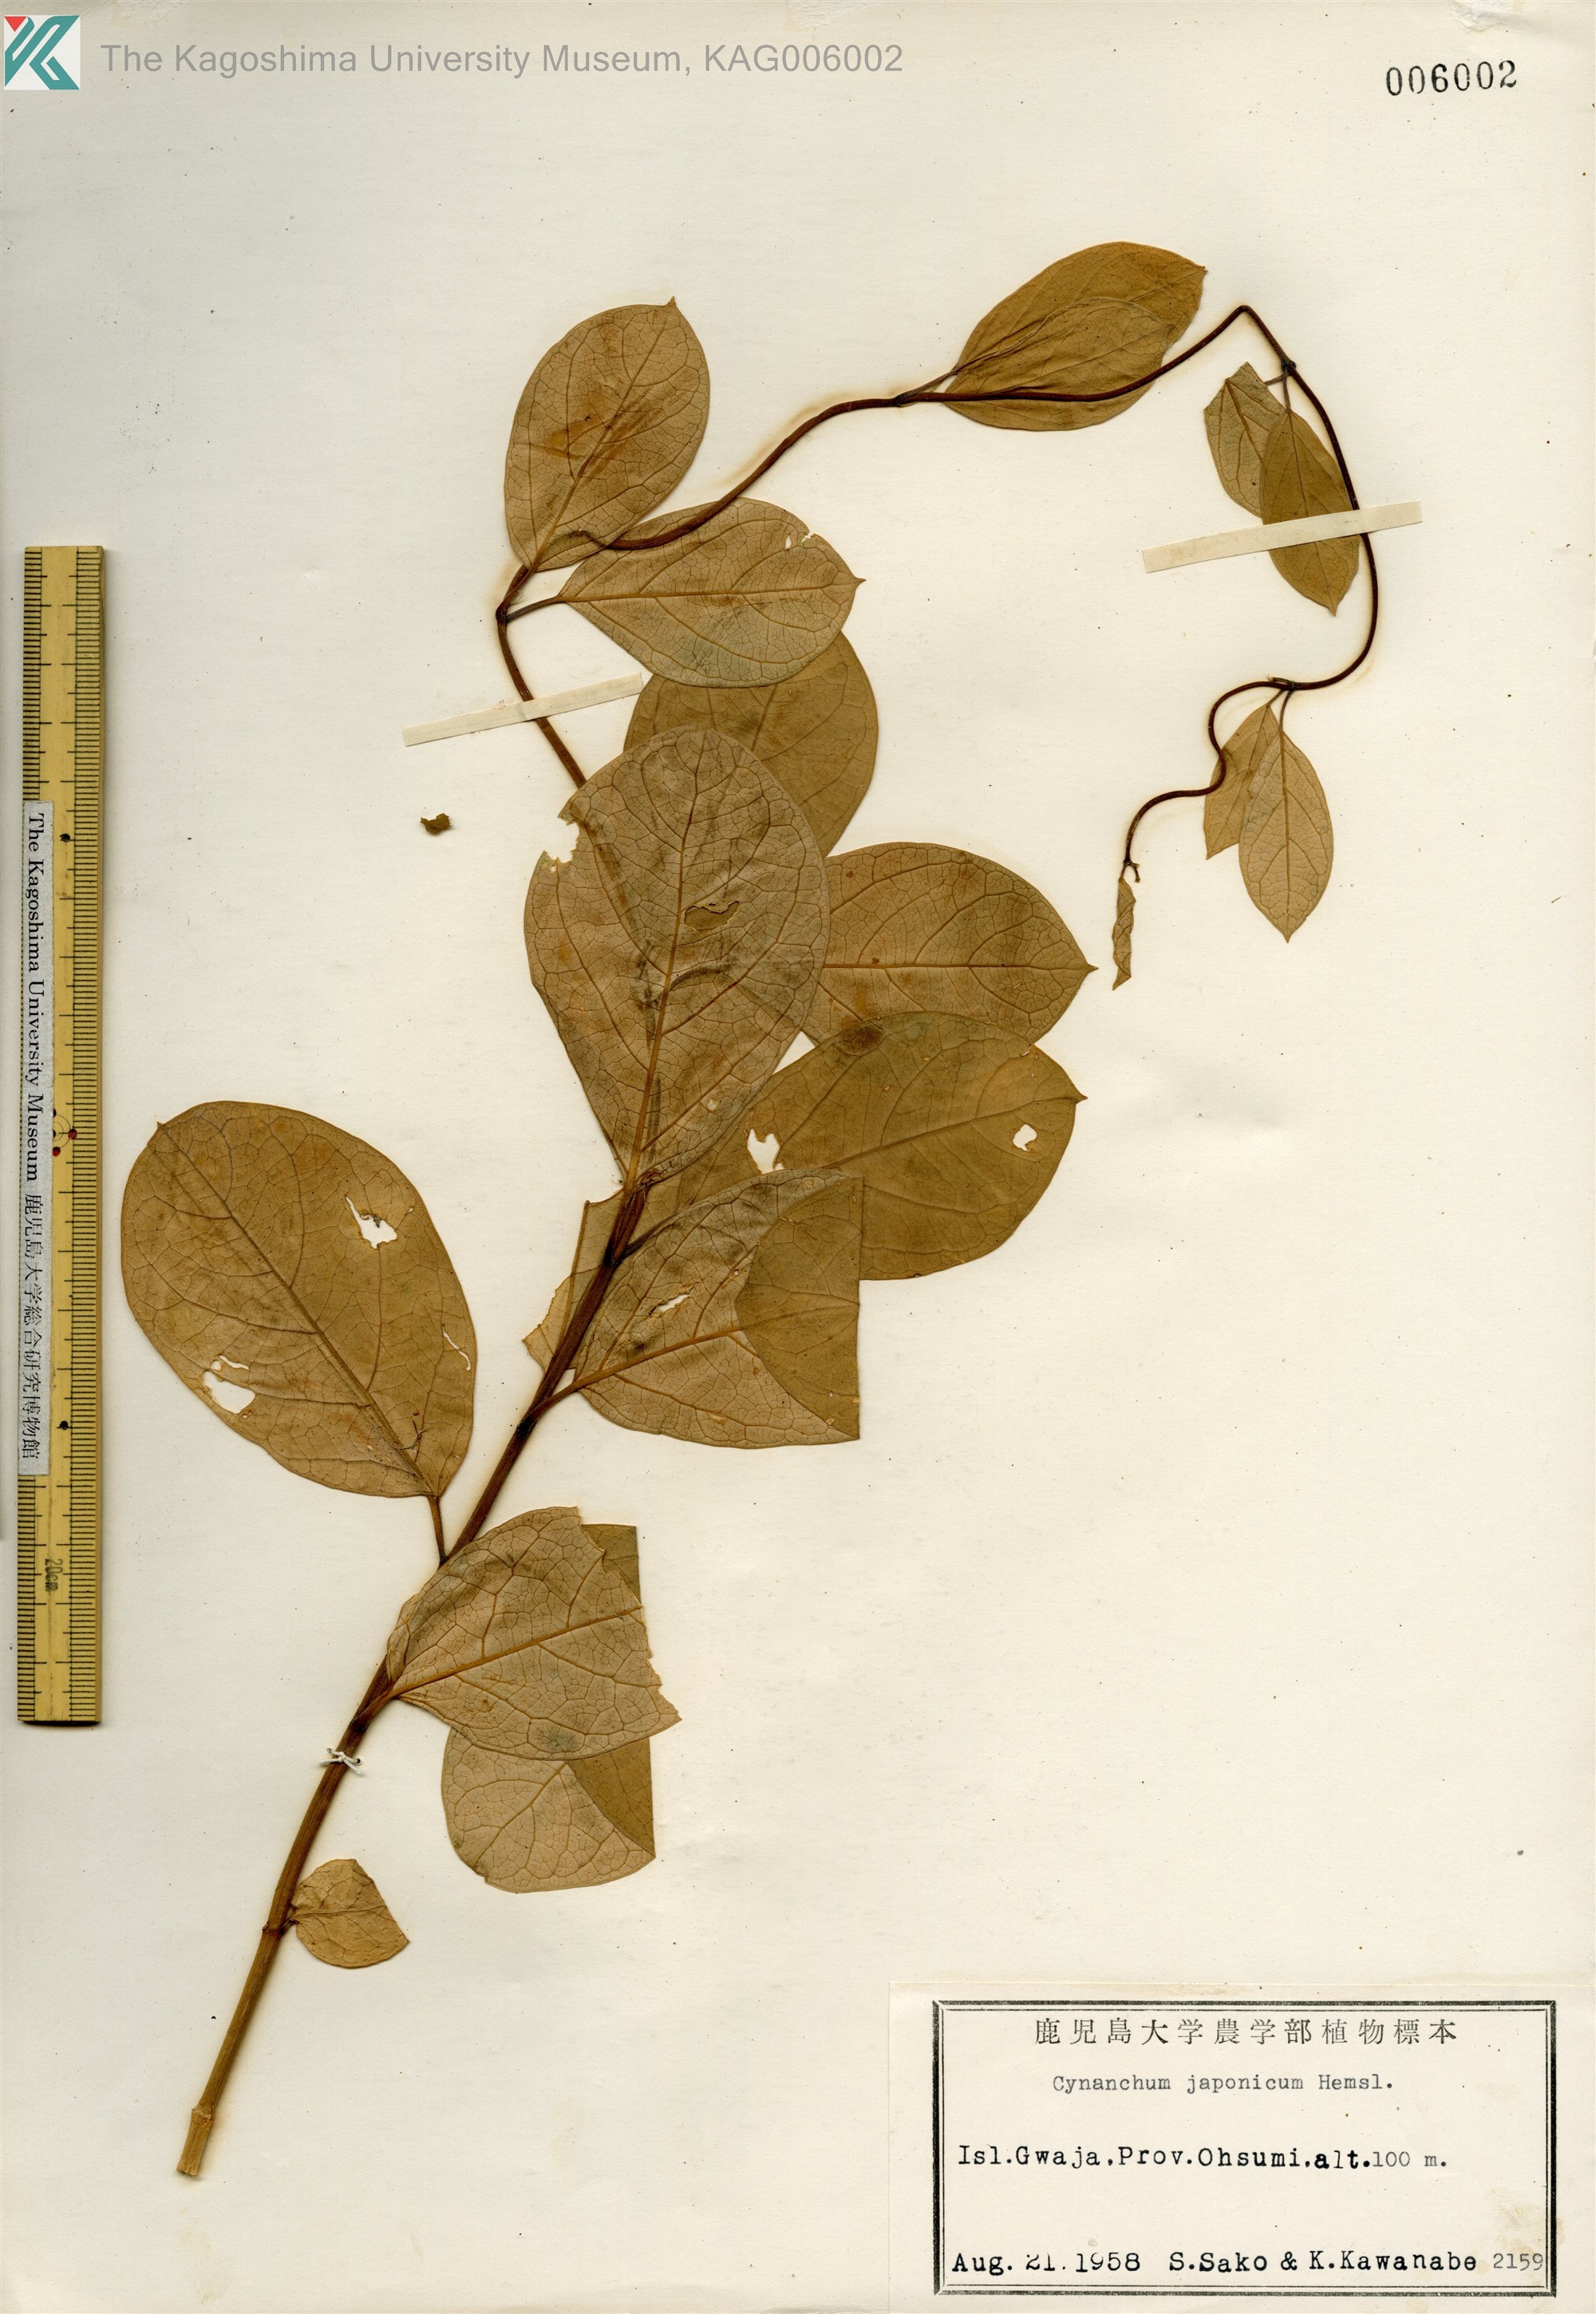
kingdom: Plantae
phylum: Tracheophyta
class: Magnoliopsida
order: Gentianales
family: Apocynaceae
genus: Vincetoxicum
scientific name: Vincetoxicum japonicum
